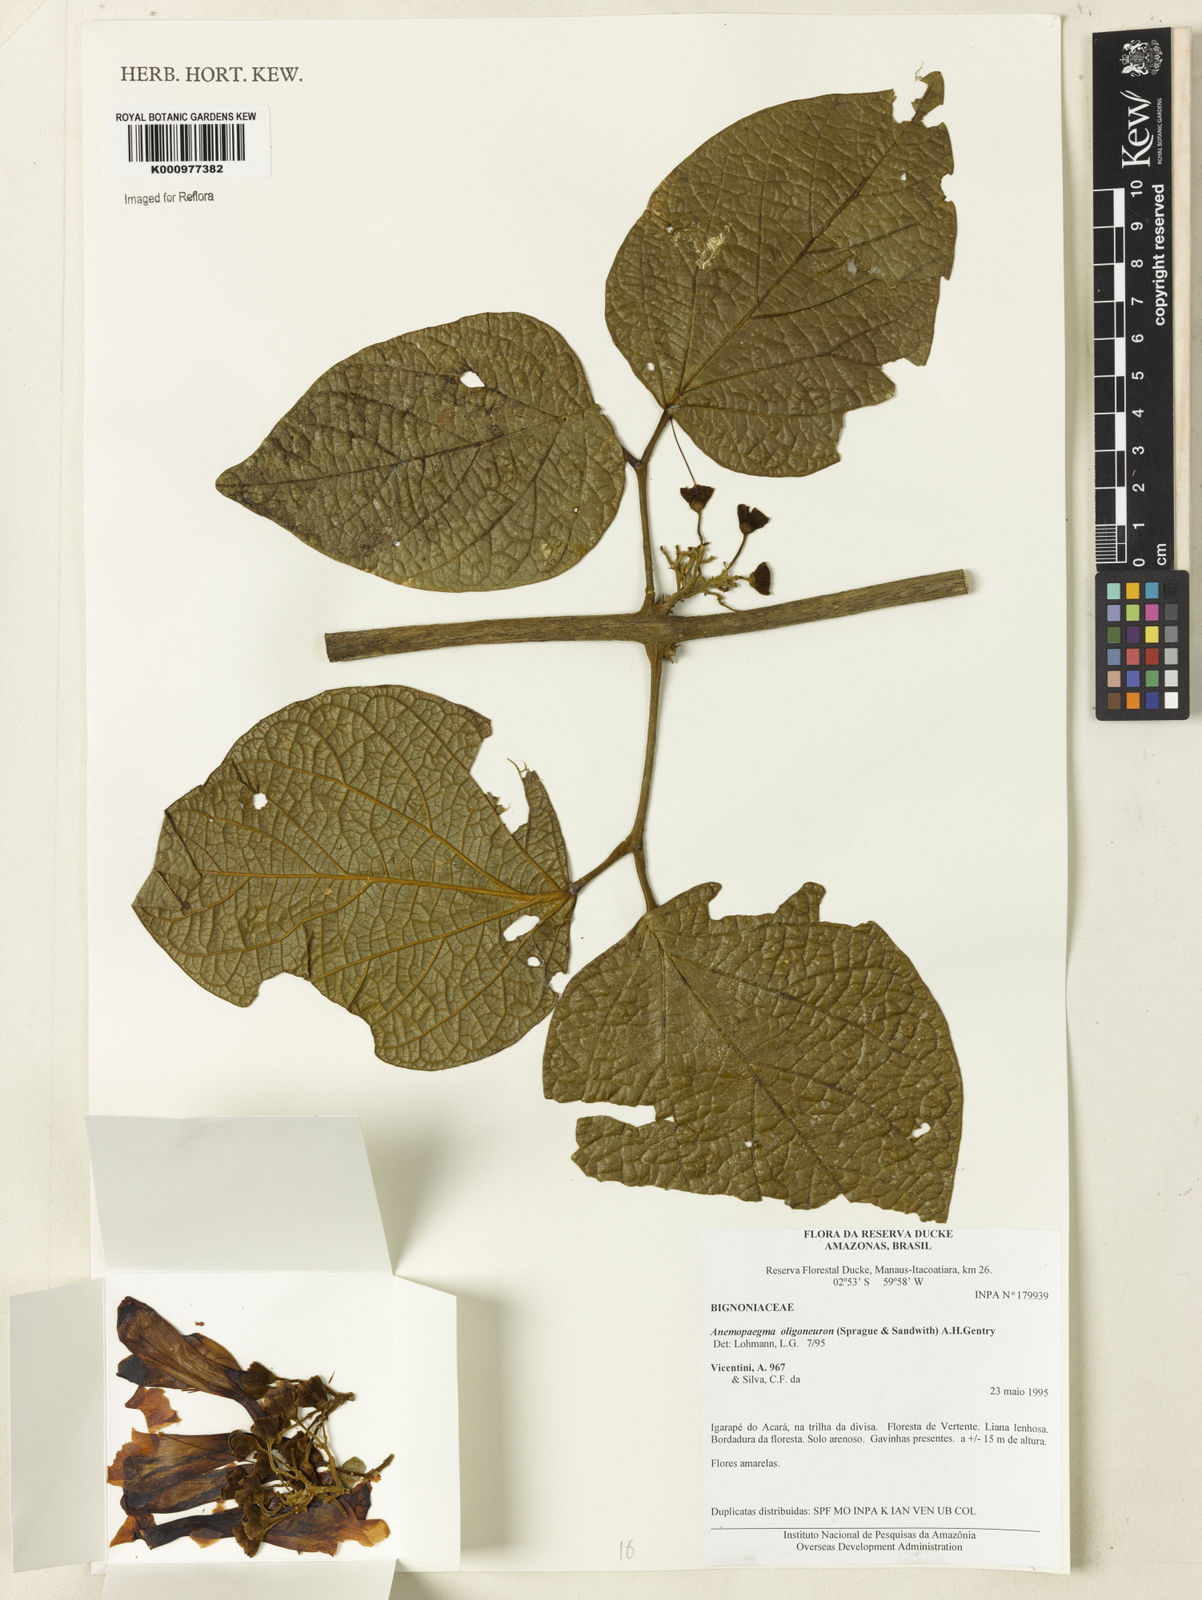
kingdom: Plantae
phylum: Tracheophyta
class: Magnoliopsida
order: Lamiales
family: Bignoniaceae
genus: Anemopaegma
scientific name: Anemopaegma oligoneuron
